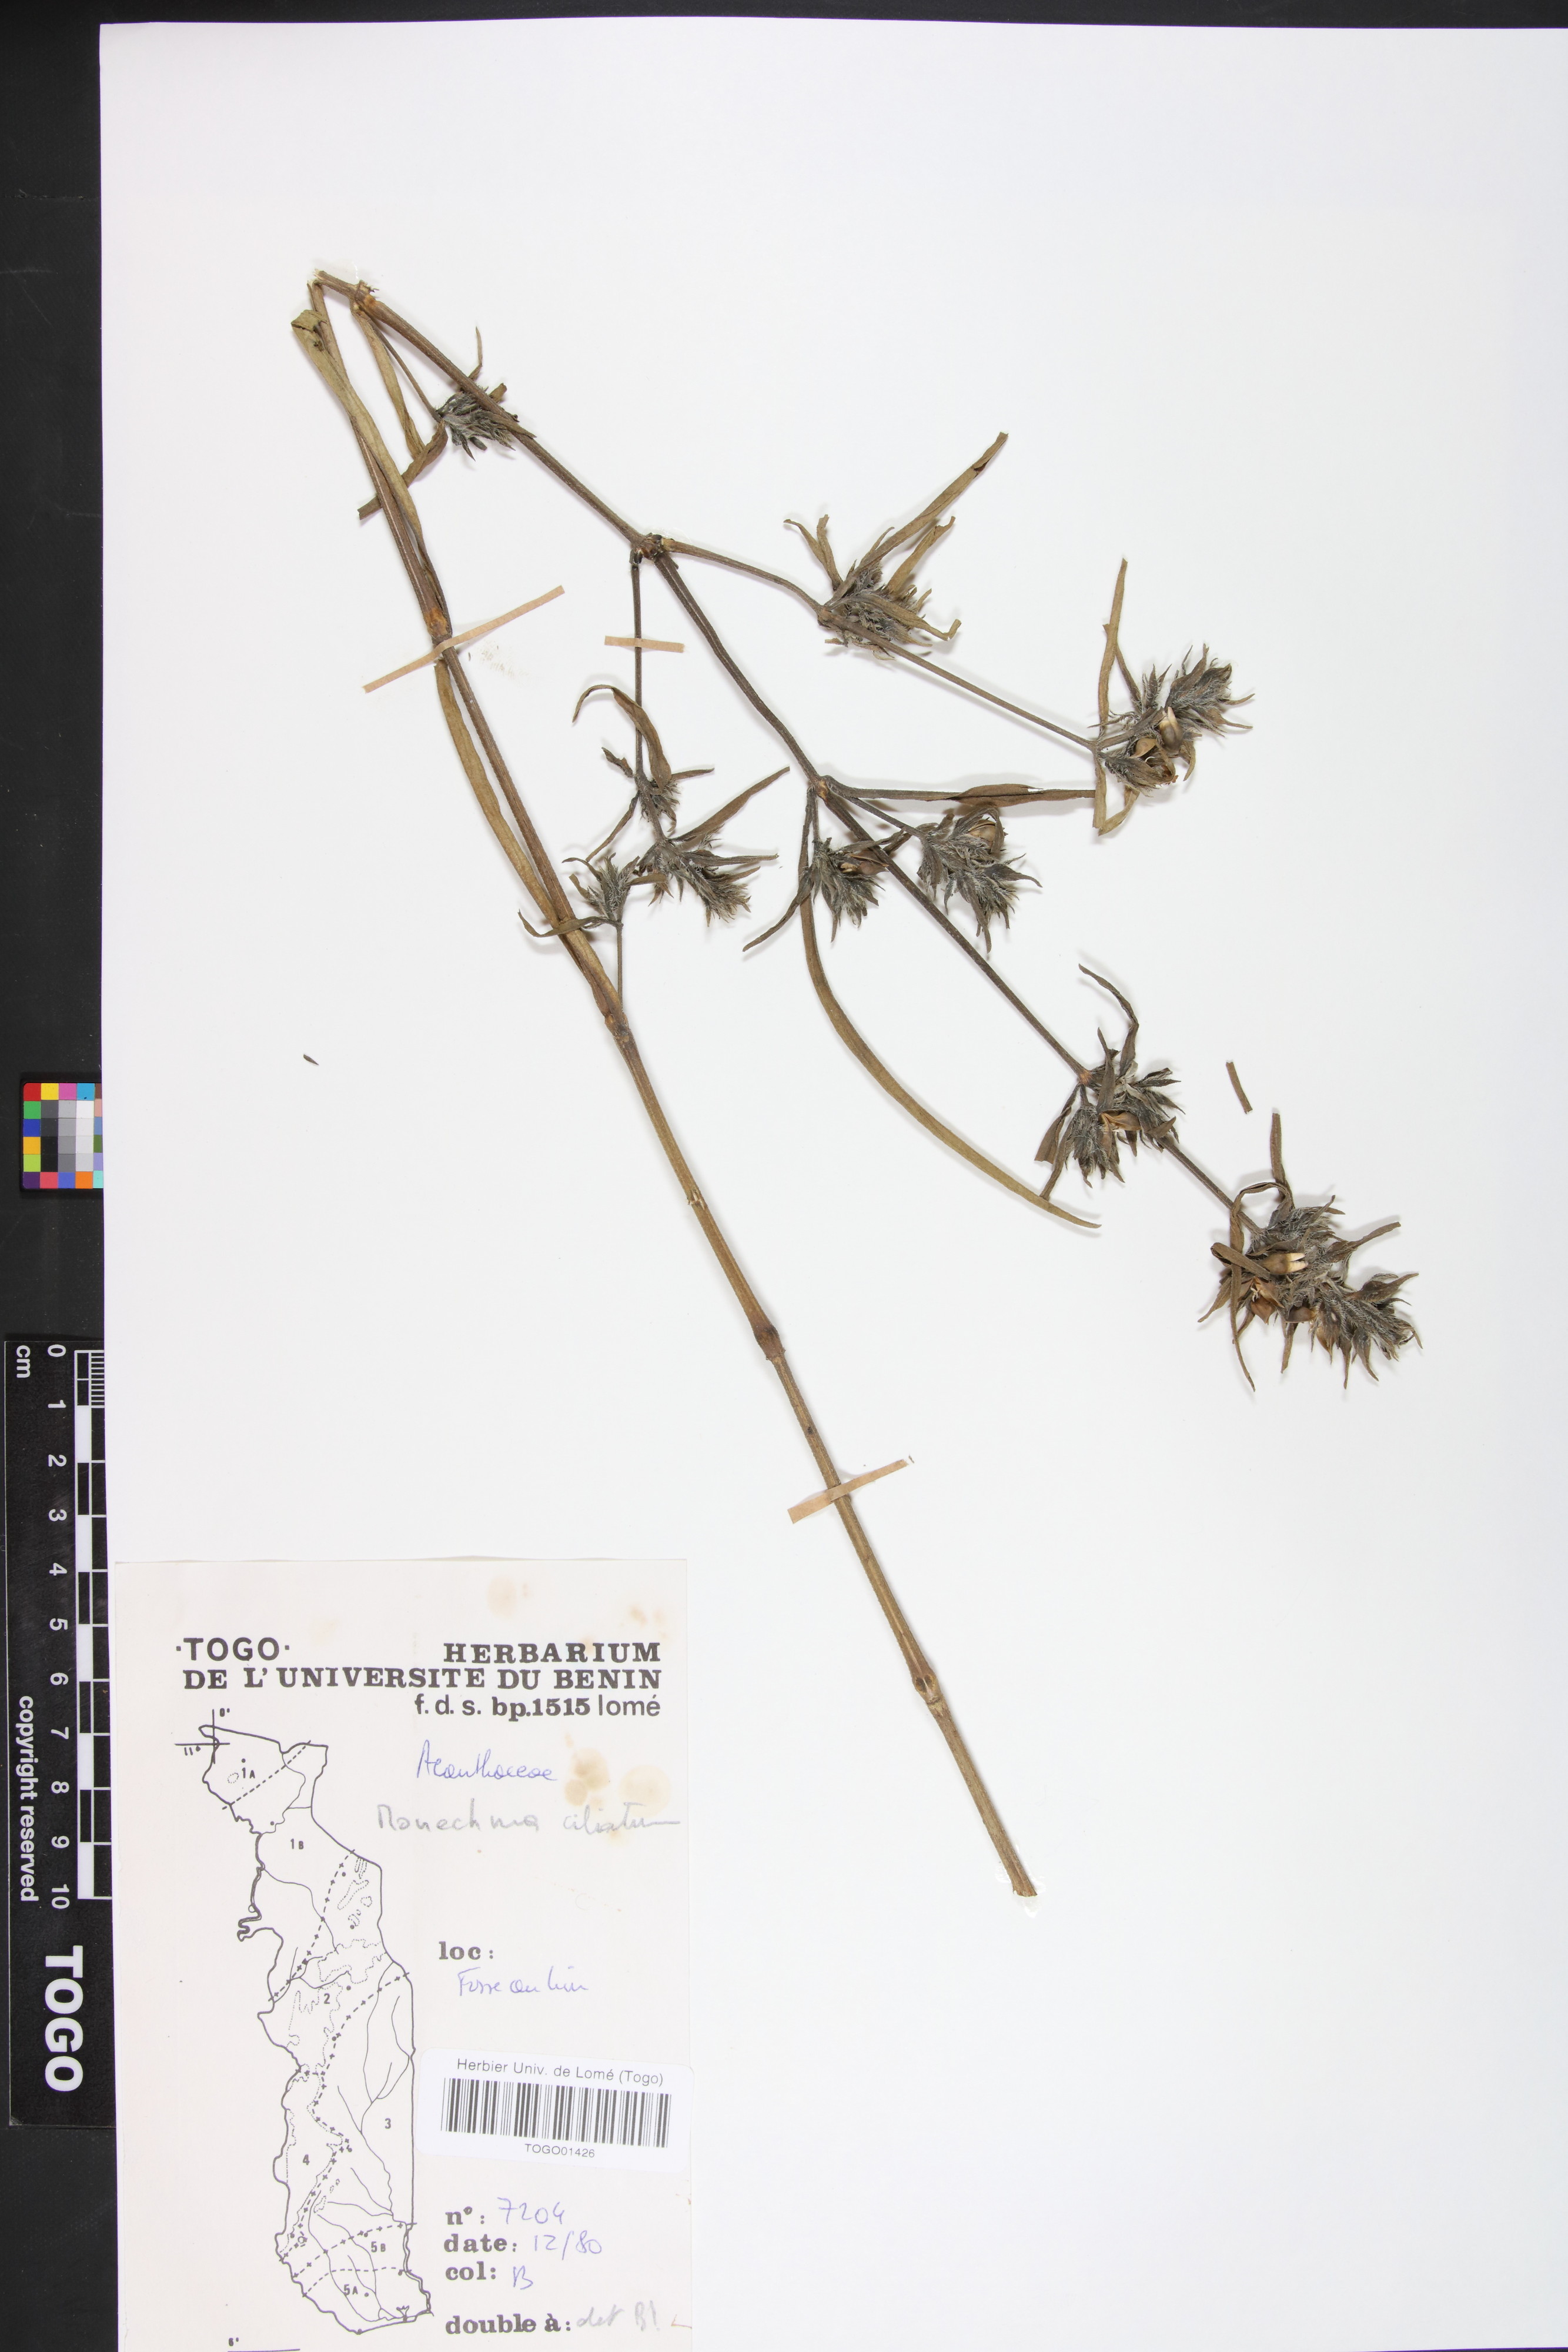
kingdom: Plantae
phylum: Tracheophyta
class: Magnoliopsida
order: Lamiales
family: Acanthaceae
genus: Pogonospermum
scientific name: Pogonospermum ciliare
